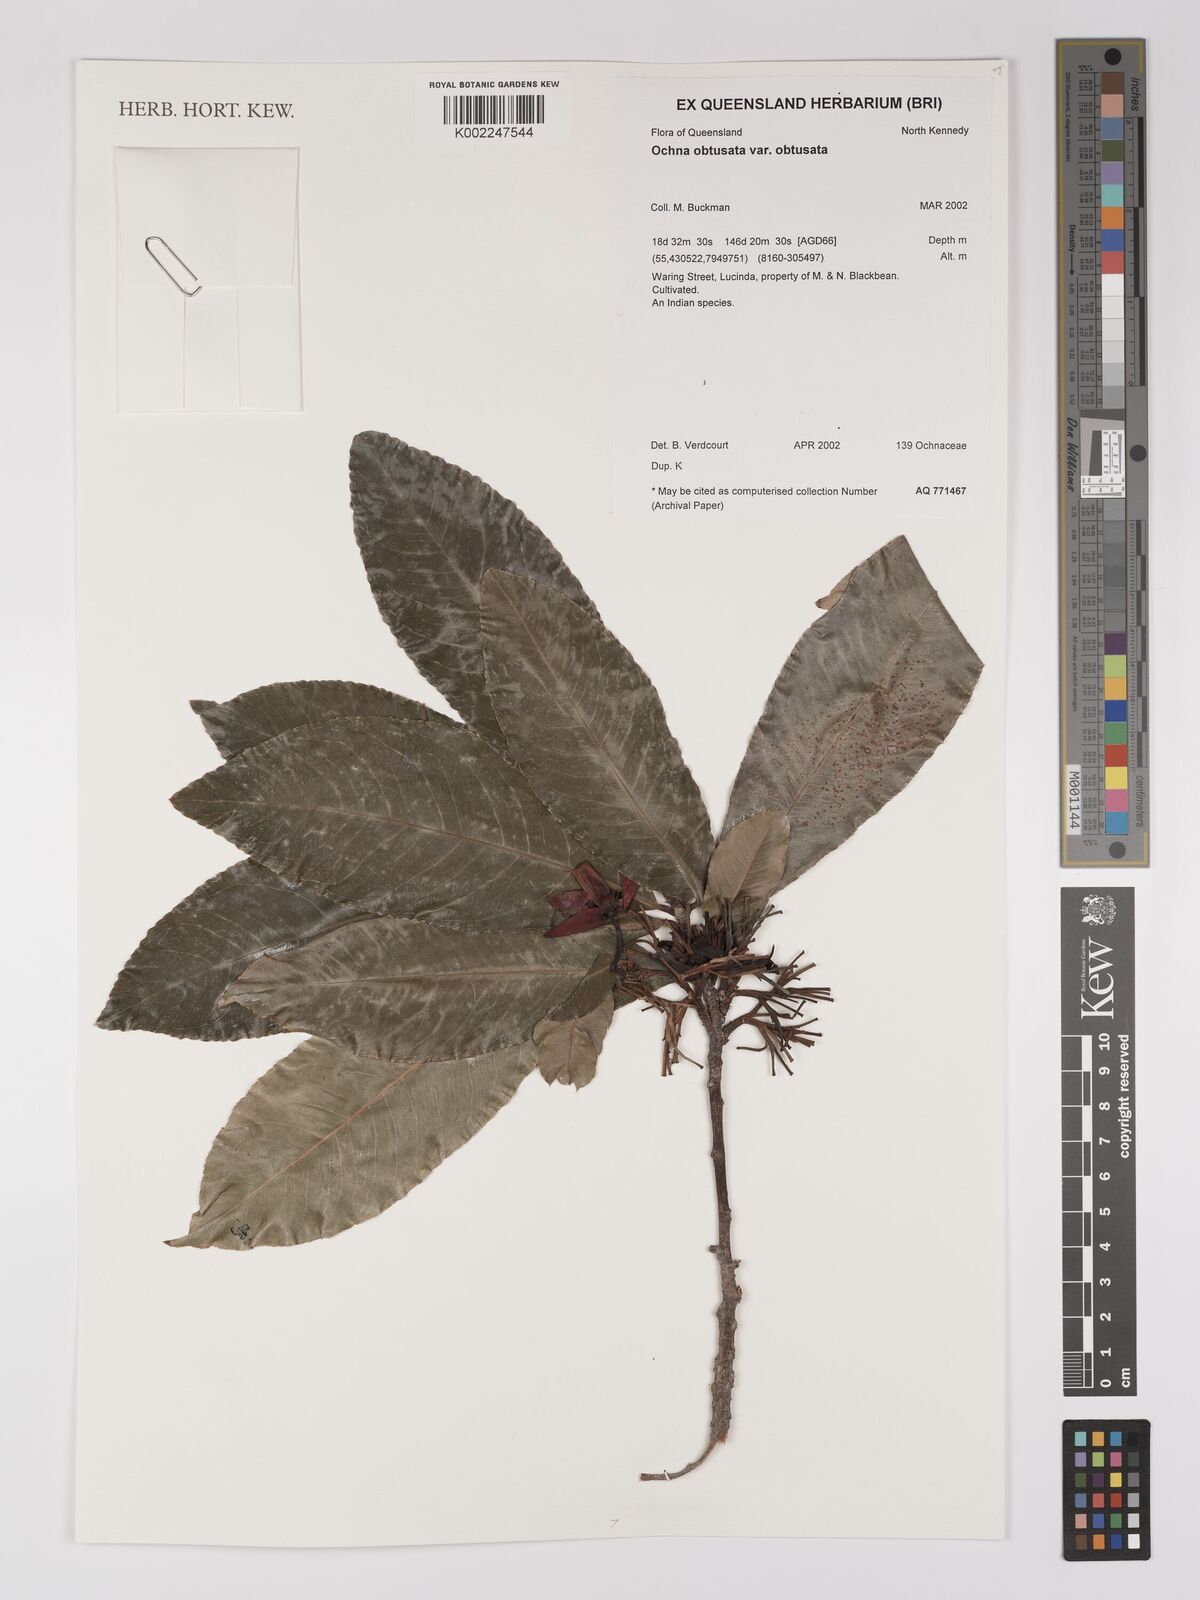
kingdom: Plantae
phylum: Tracheophyta
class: Magnoliopsida
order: Malpighiales
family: Ochnaceae
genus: Ochna
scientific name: Ochna obtusata
